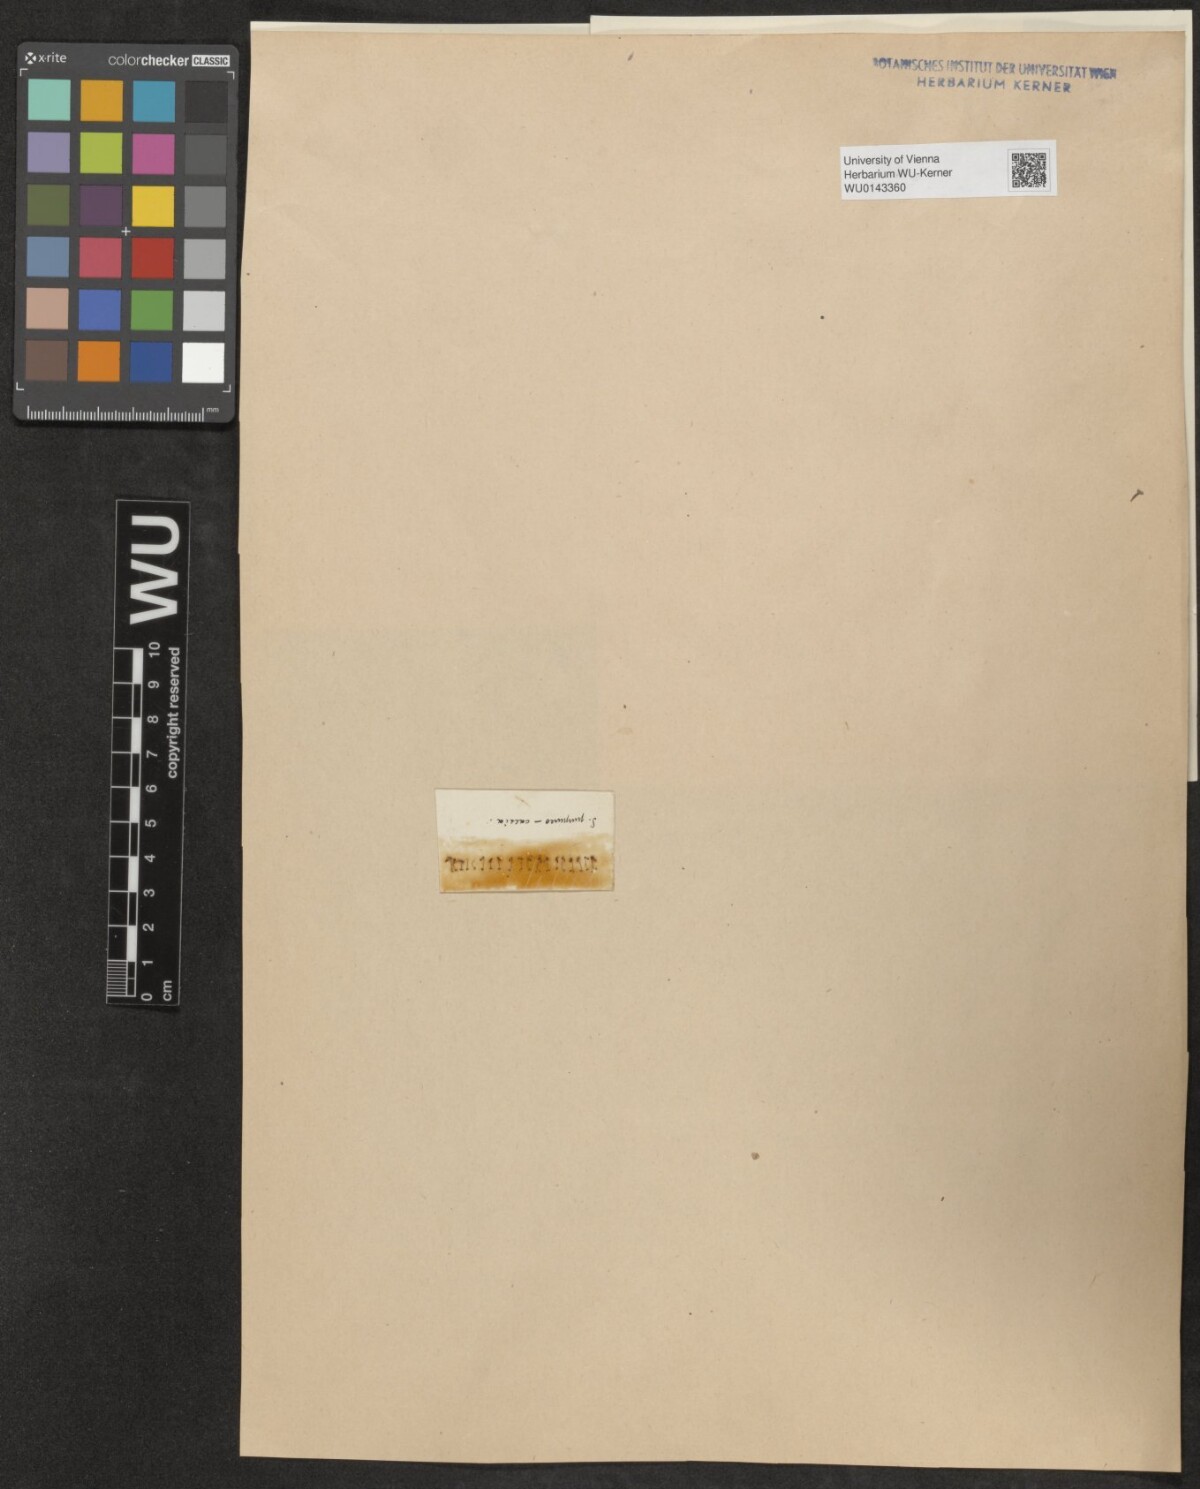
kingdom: Plantae
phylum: Tracheophyta
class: Magnoliopsida
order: Malpighiales
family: Salicaceae
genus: Salix
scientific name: Salix purpurea
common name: Purple willow
